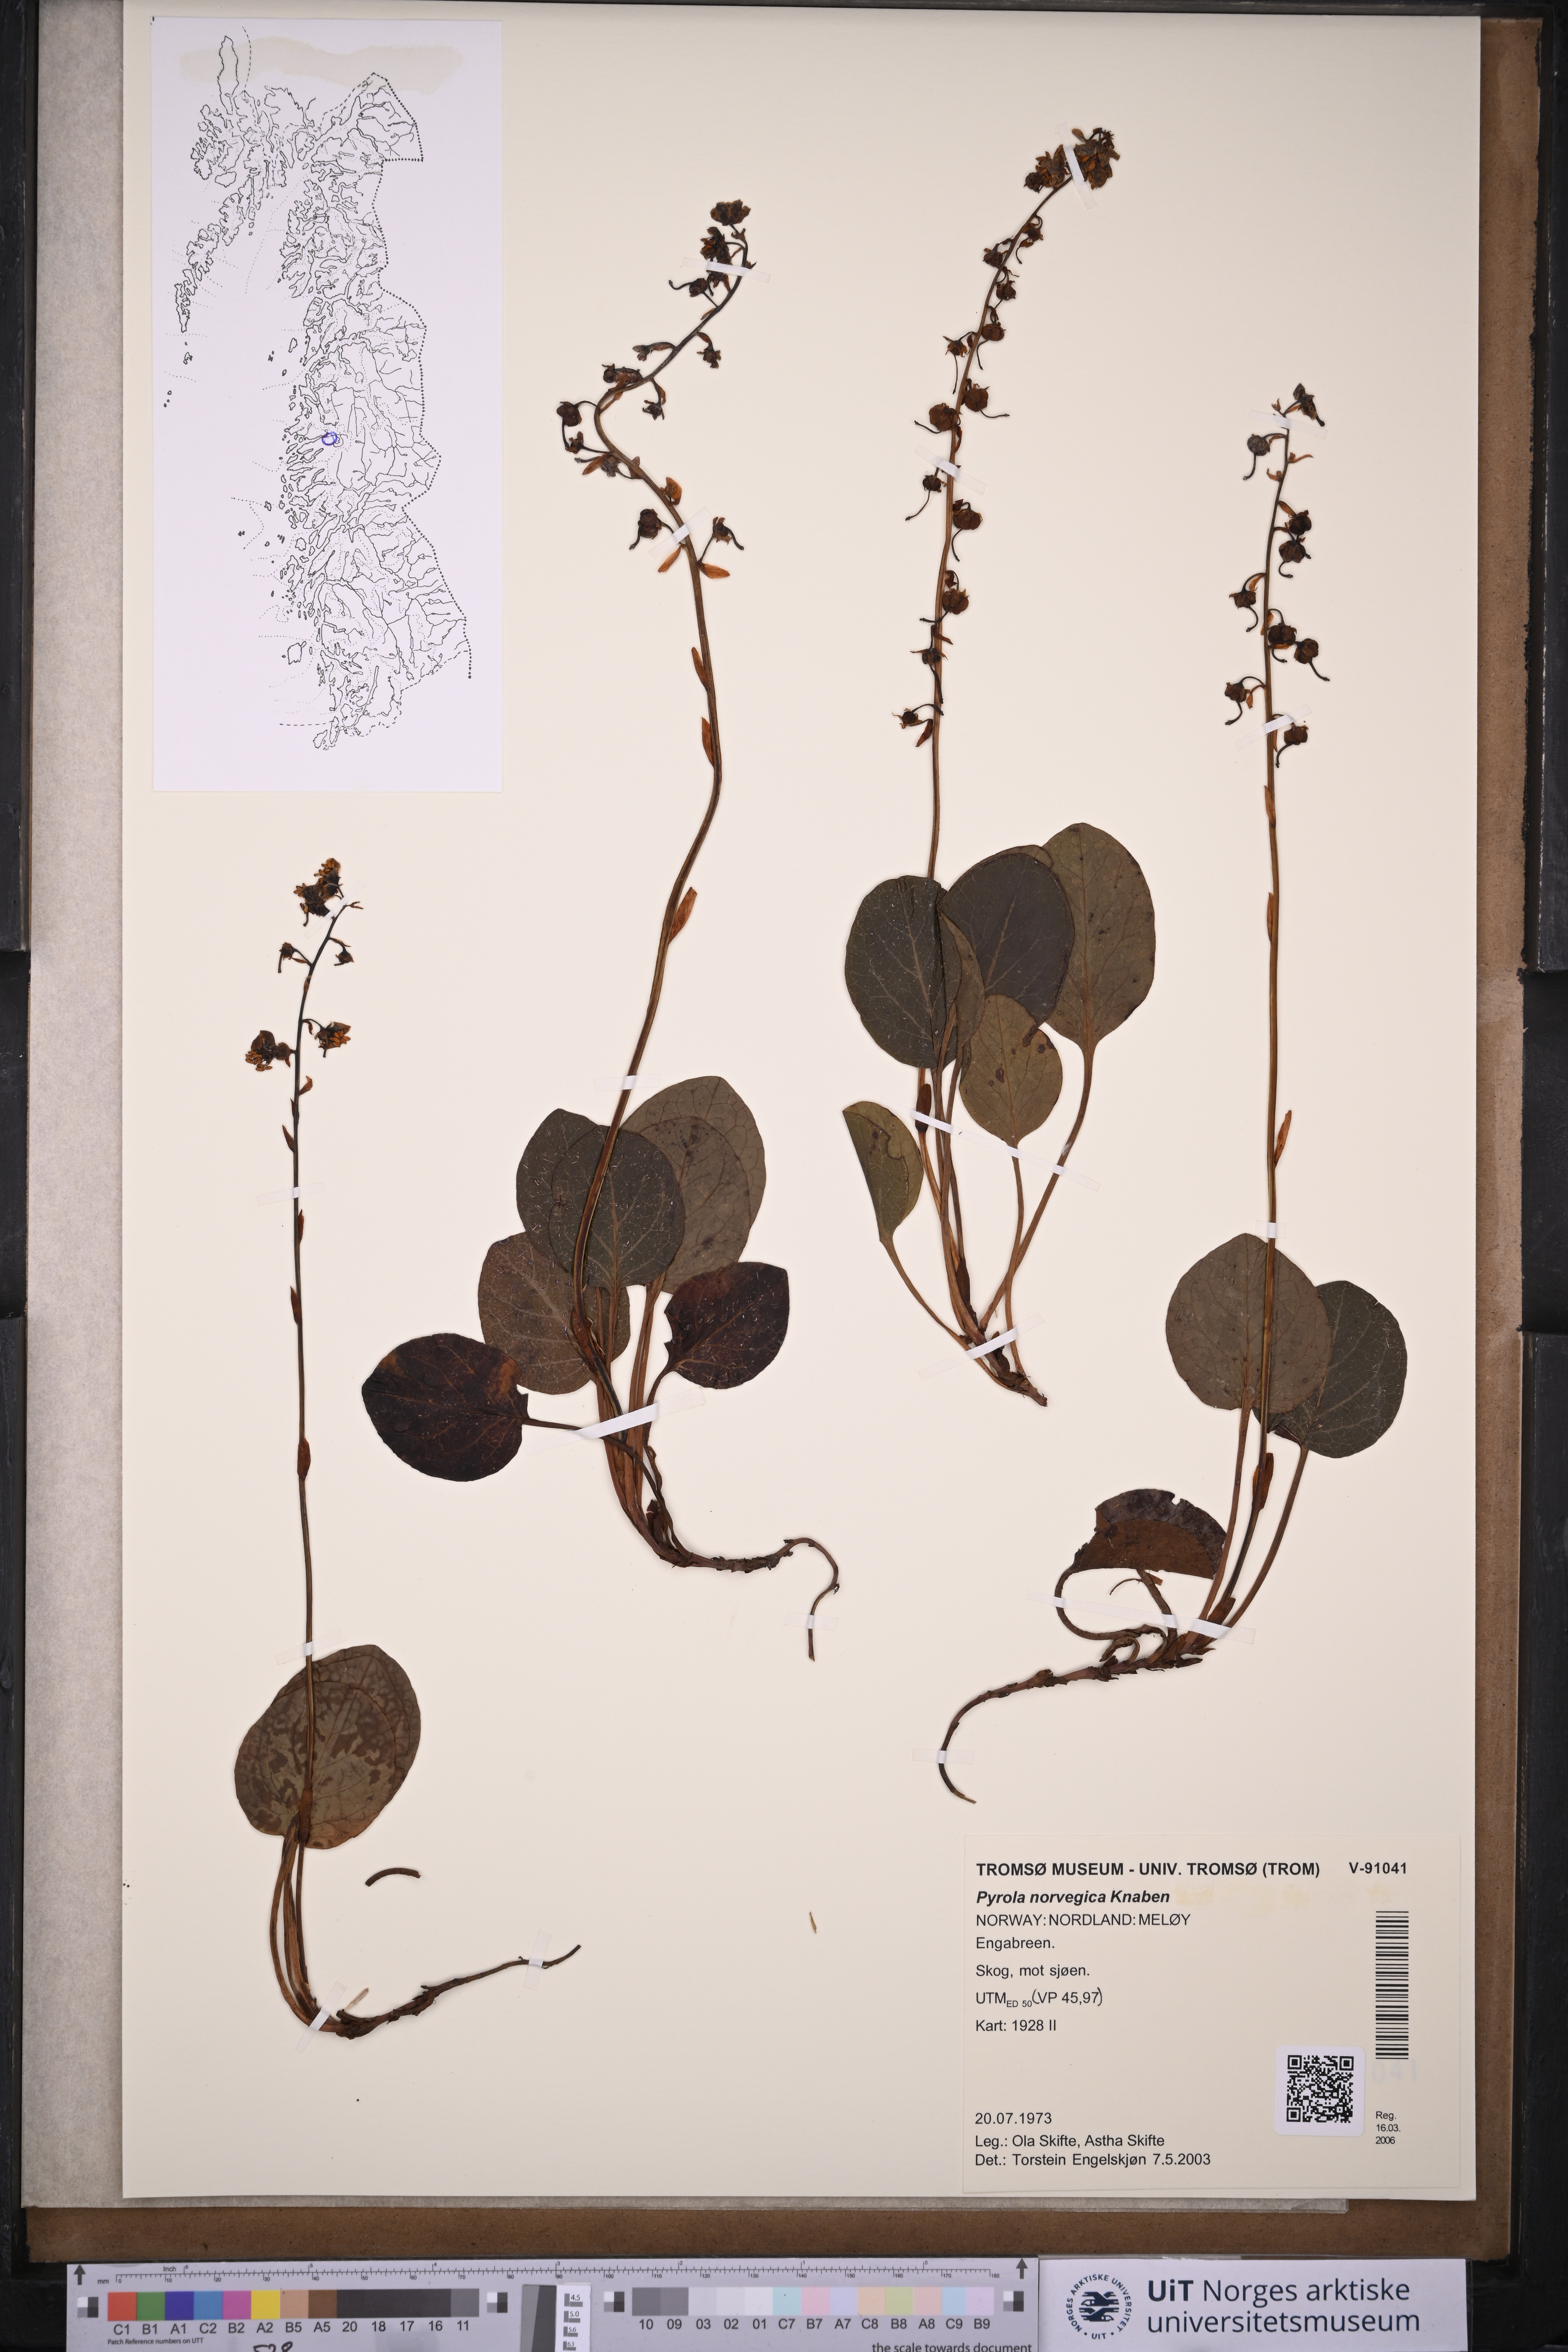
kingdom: Plantae
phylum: Tracheophyta
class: Magnoliopsida
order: Ericales
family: Ericaceae
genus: Pyrola
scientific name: Pyrola rotundifolia
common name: Round-leaved wintergreen
